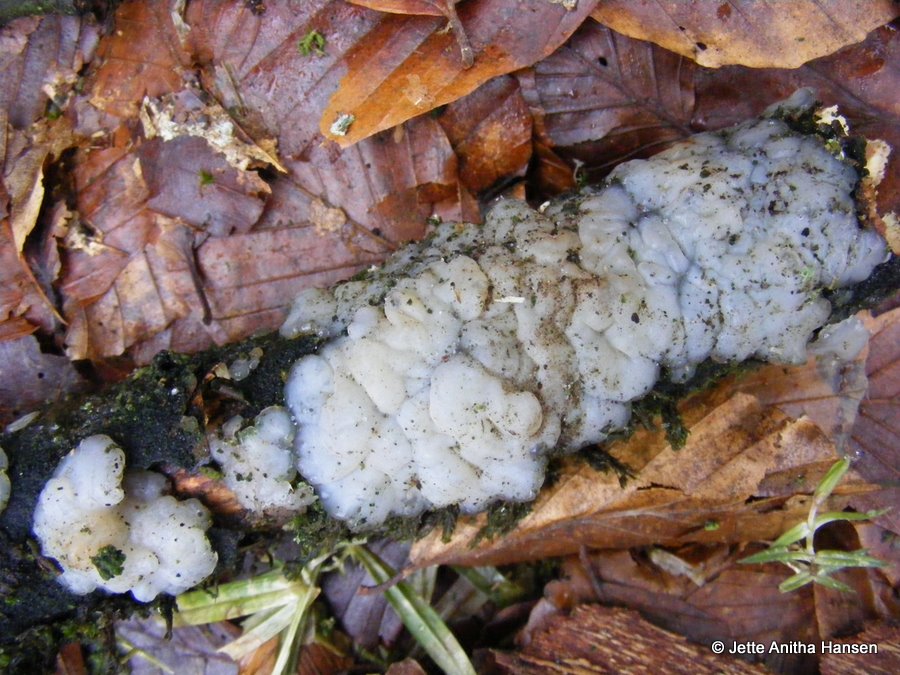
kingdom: Fungi
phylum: Basidiomycota
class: Agaricomycetes
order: Auriculariales
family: Auriculariaceae
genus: Exidia
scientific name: Exidia thuretiana
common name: hvidlig bævretop
